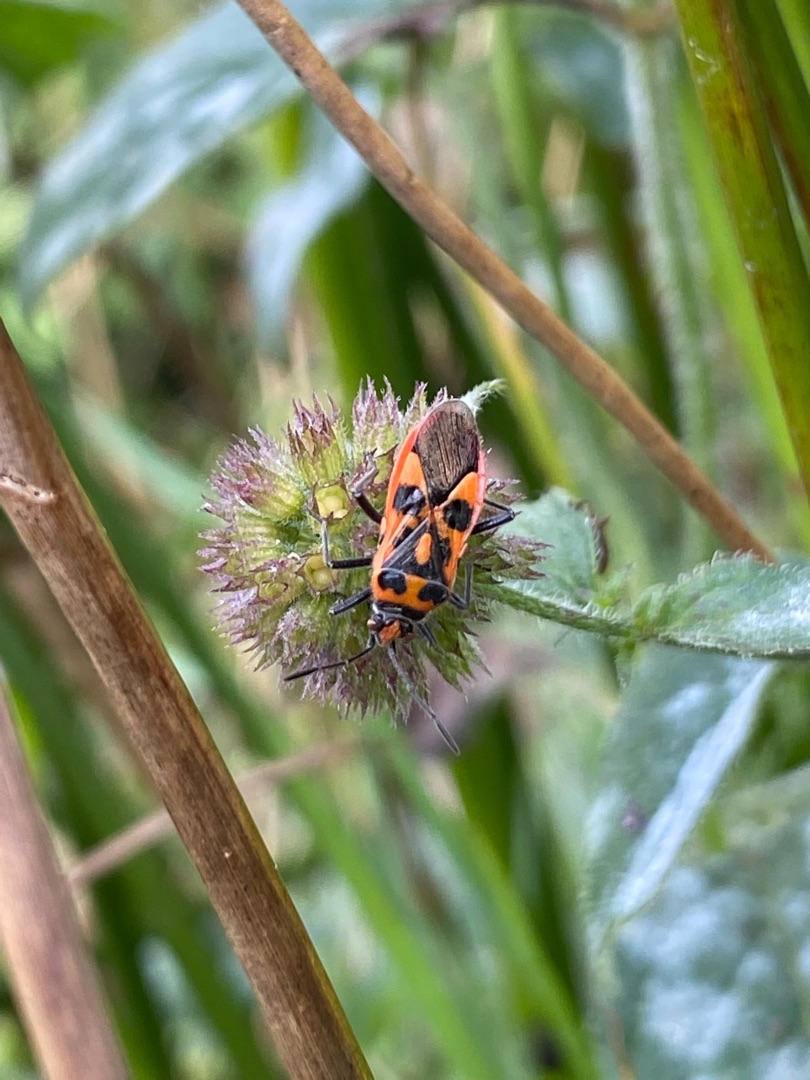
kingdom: Animalia
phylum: Arthropoda
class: Insecta
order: Hemiptera
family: Rhopalidae
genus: Corizus
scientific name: Corizus hyoscyami
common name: Rød kanttæge
